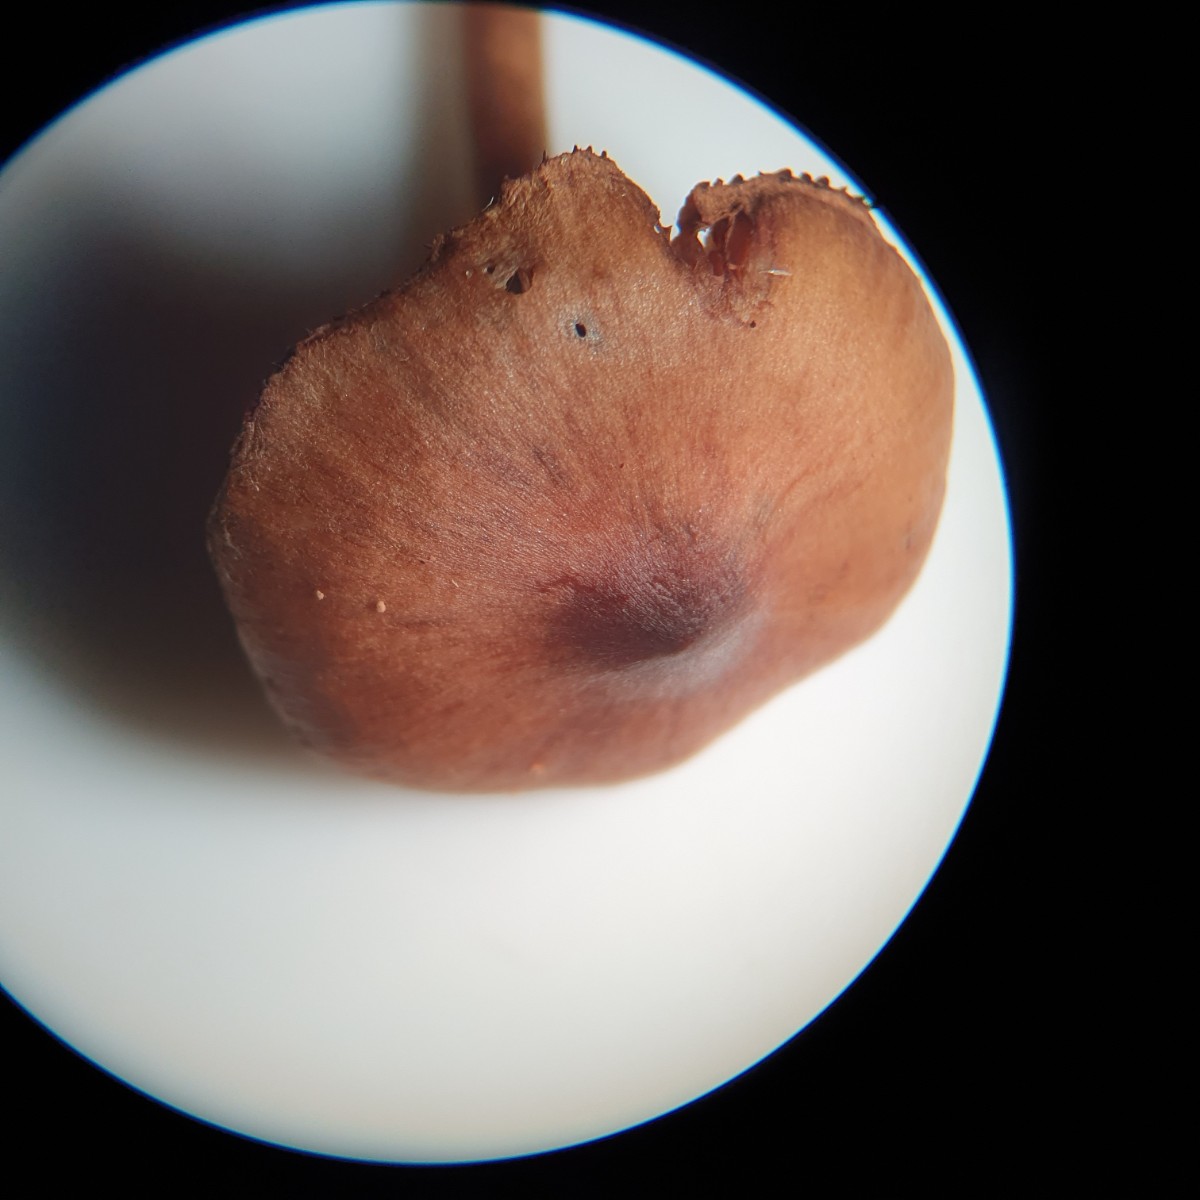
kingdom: Fungi
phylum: Basidiomycota
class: Agaricomycetes
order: Agaricales
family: Cortinariaceae
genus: Cortinarius
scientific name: Cortinarius
